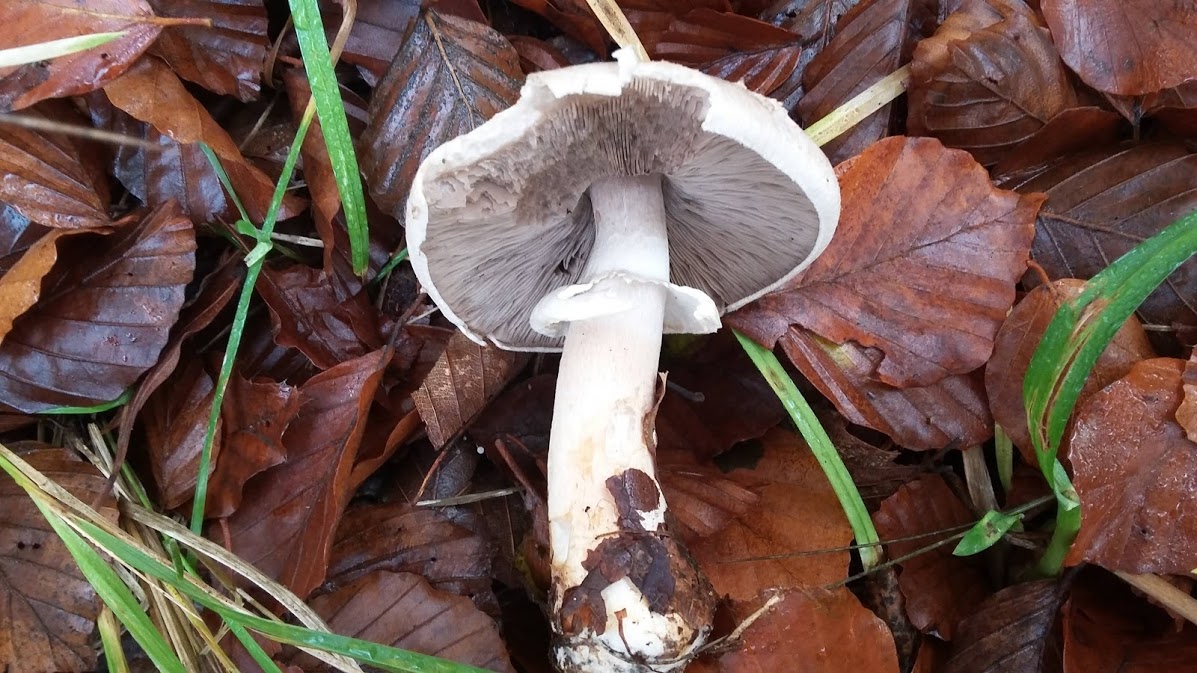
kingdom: Fungi
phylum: Basidiomycota
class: Agaricomycetes
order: Agaricales
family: Agaricaceae
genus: Agaricus
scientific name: Agaricus sylvicola
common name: gulhvid champignon
